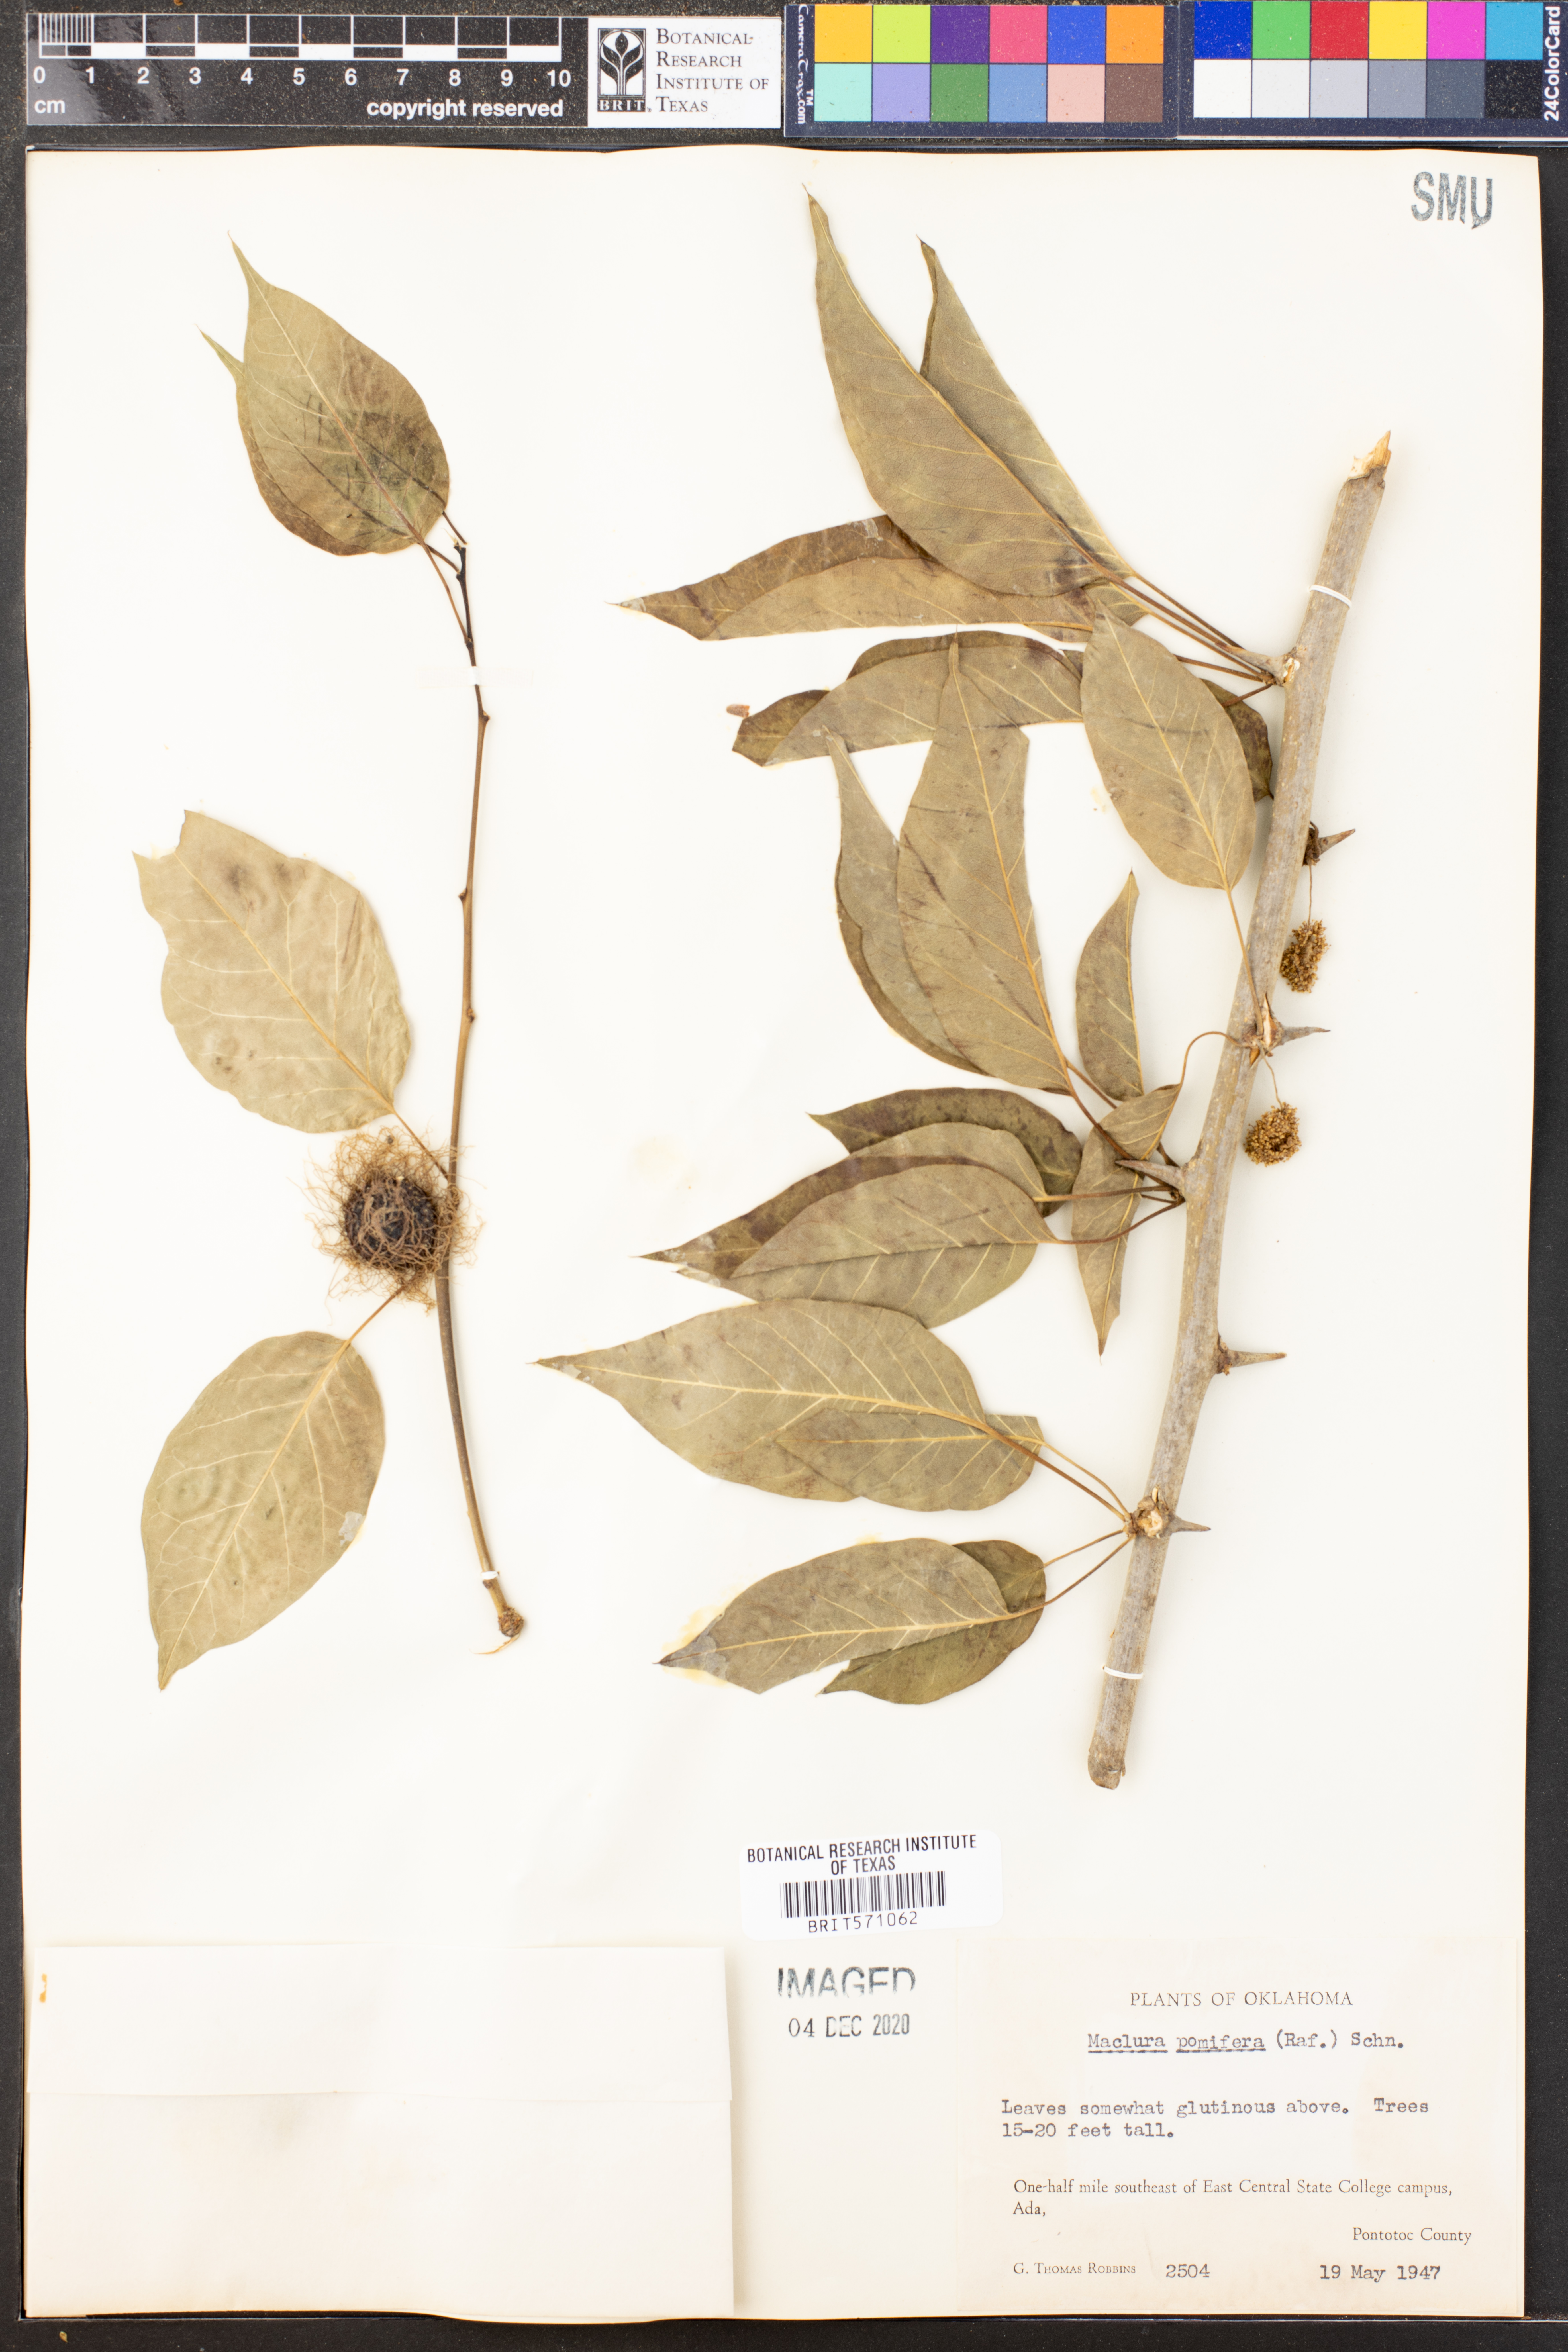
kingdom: Plantae
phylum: Tracheophyta
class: Magnoliopsida
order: Rosales
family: Moraceae
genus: Maclura
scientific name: Maclura pomifera
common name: Osage-orange
